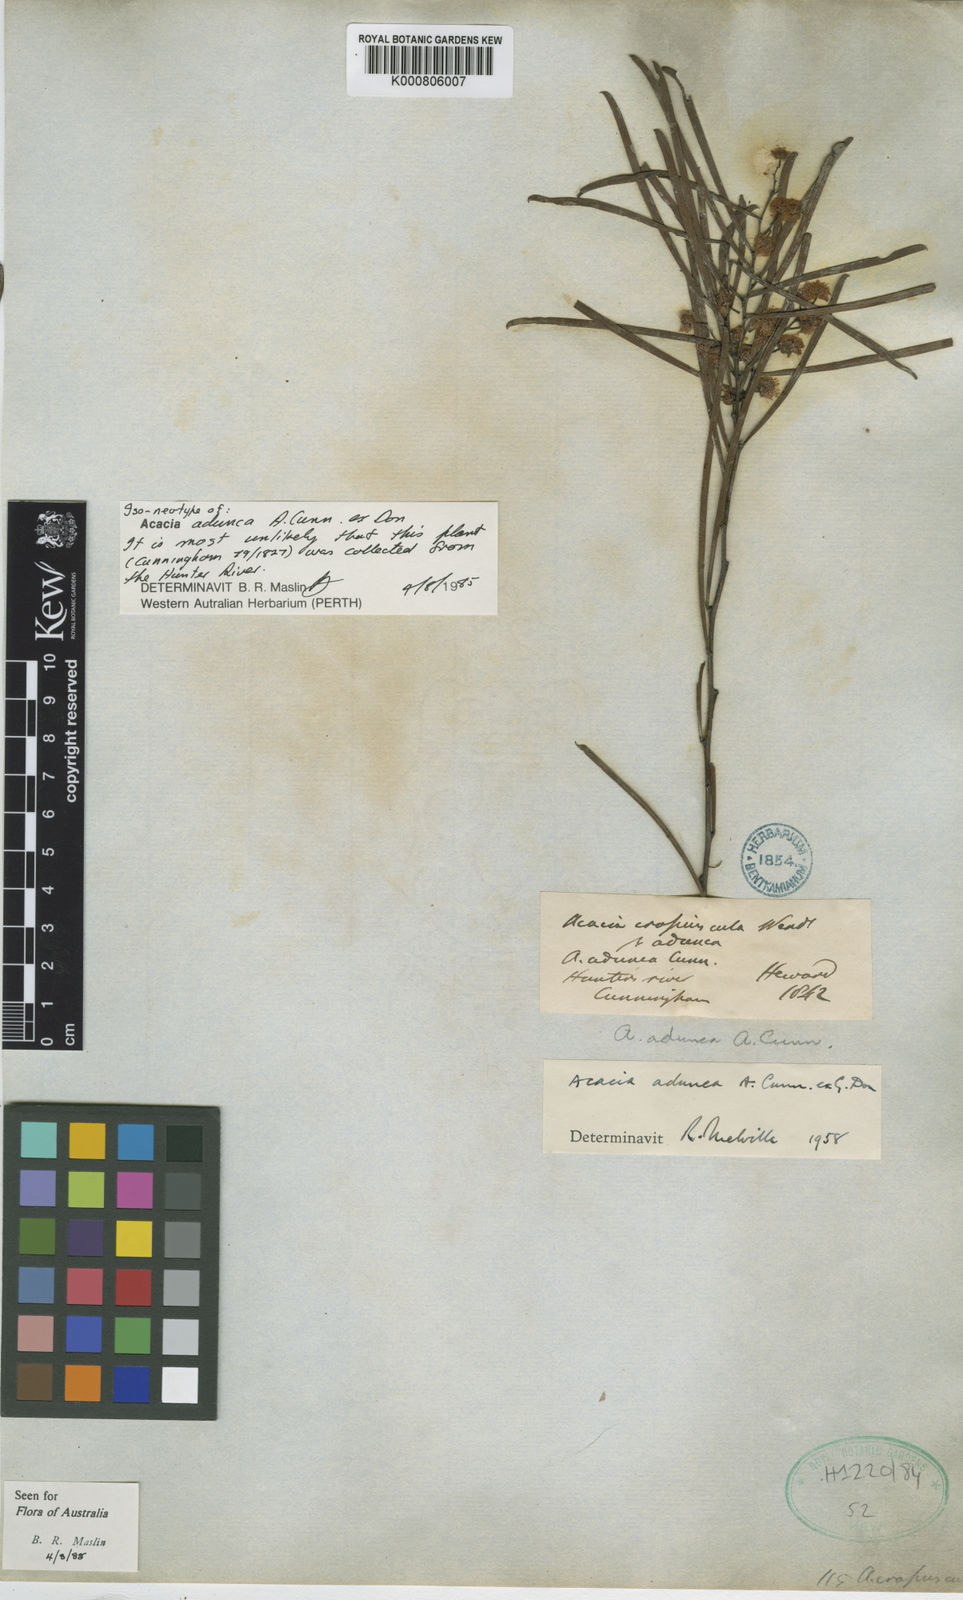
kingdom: Plantae
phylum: Tracheophyta
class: Magnoliopsida
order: Fabales
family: Fabaceae
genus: Acacia
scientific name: Acacia adunca
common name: Wallangarra wattle
